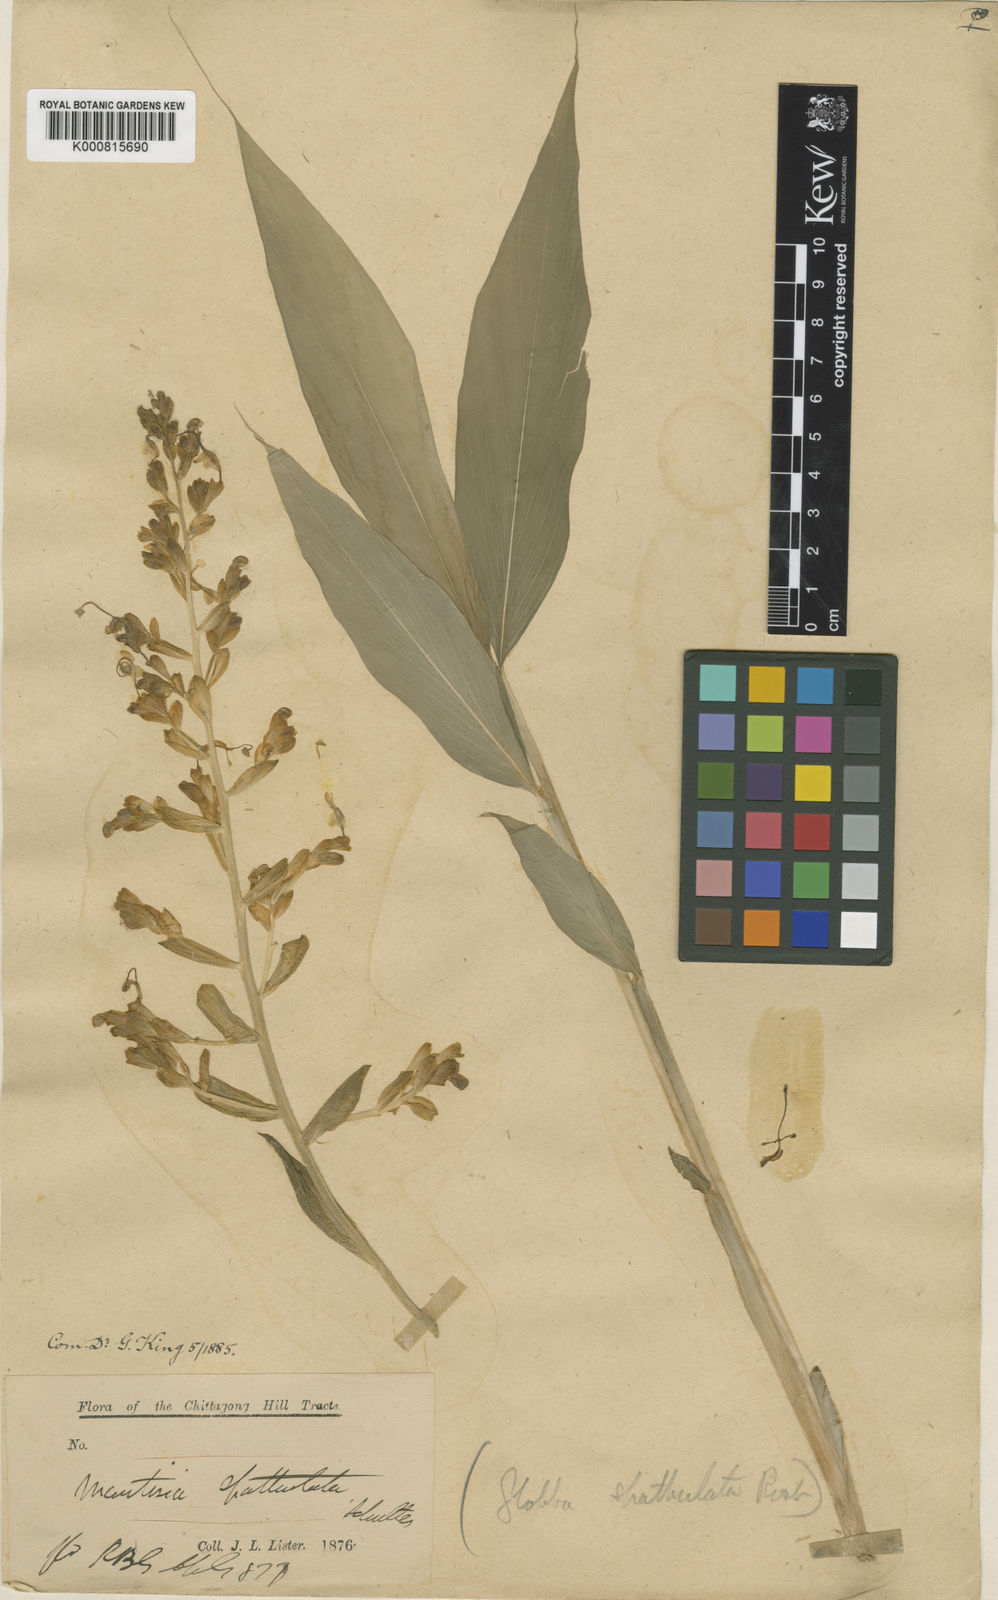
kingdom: Plantae
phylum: Tracheophyta
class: Liliopsida
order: Zingiberales
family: Zingiberaceae
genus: Globba
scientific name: Globba spathulata
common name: Dancing girl flower
